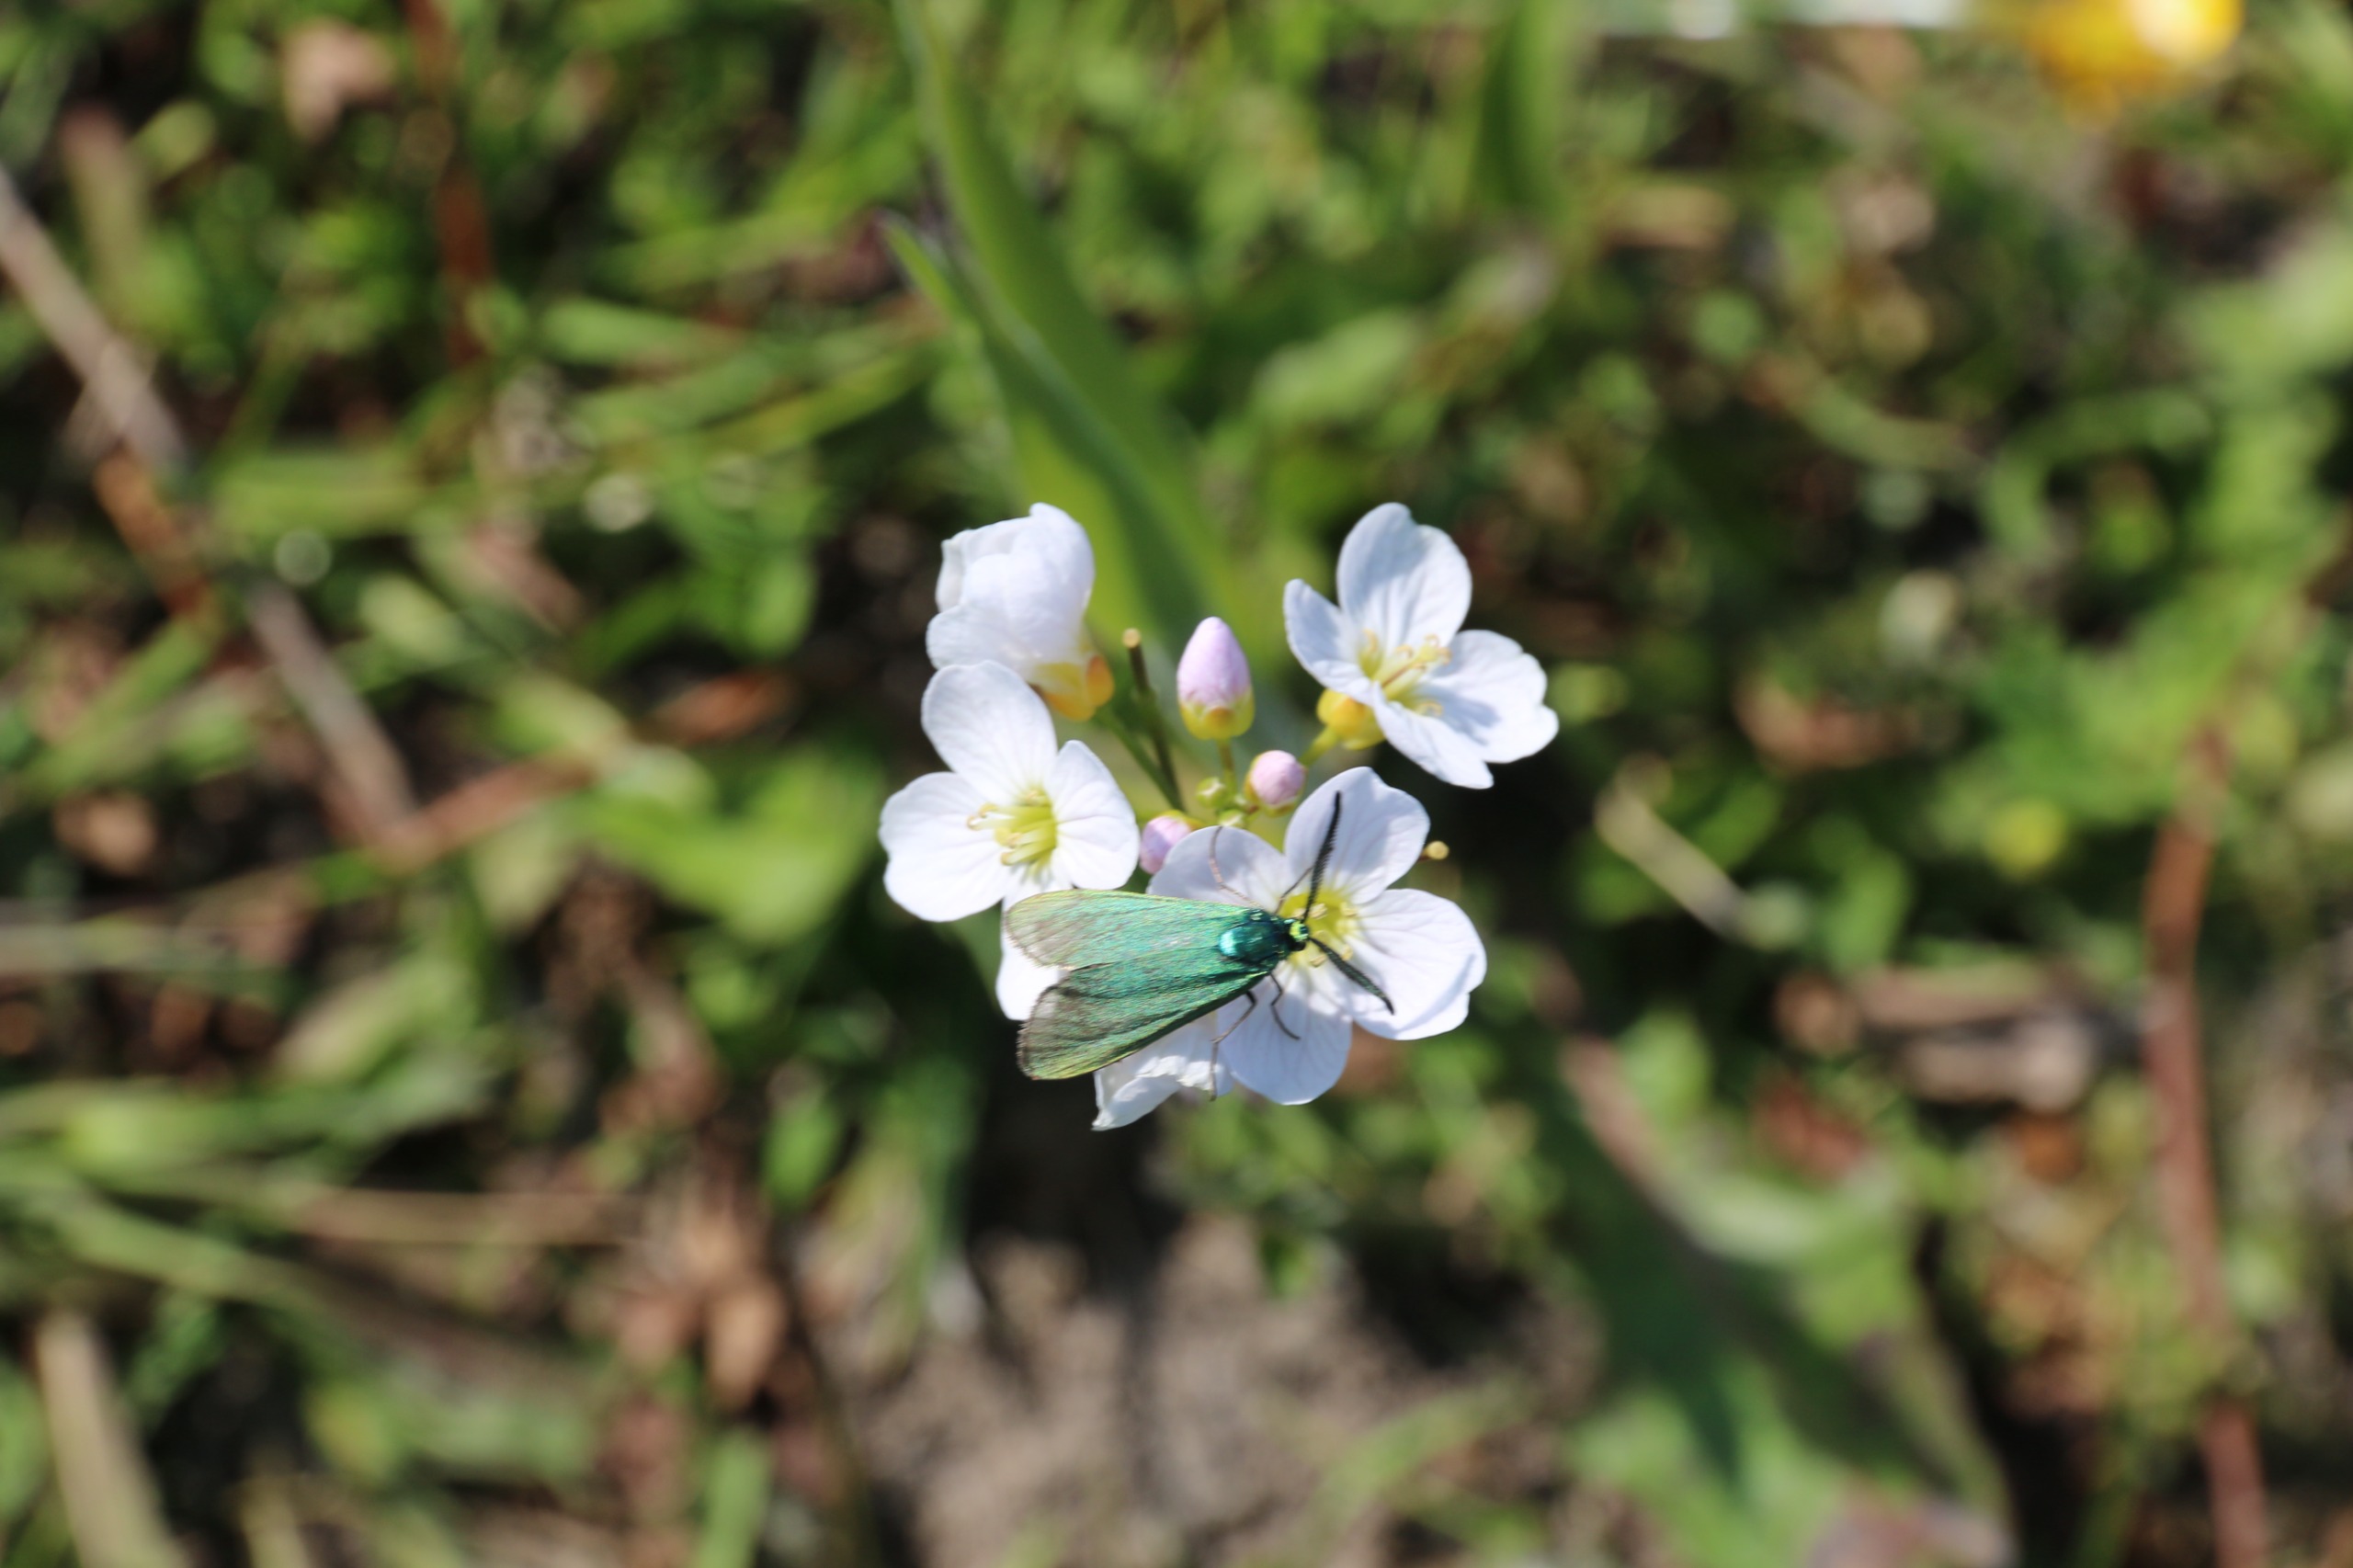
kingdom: Animalia
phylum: Arthropoda
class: Insecta
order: Lepidoptera
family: Zygaenidae
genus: Adscita
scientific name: Adscita statices
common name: Metalvinge
